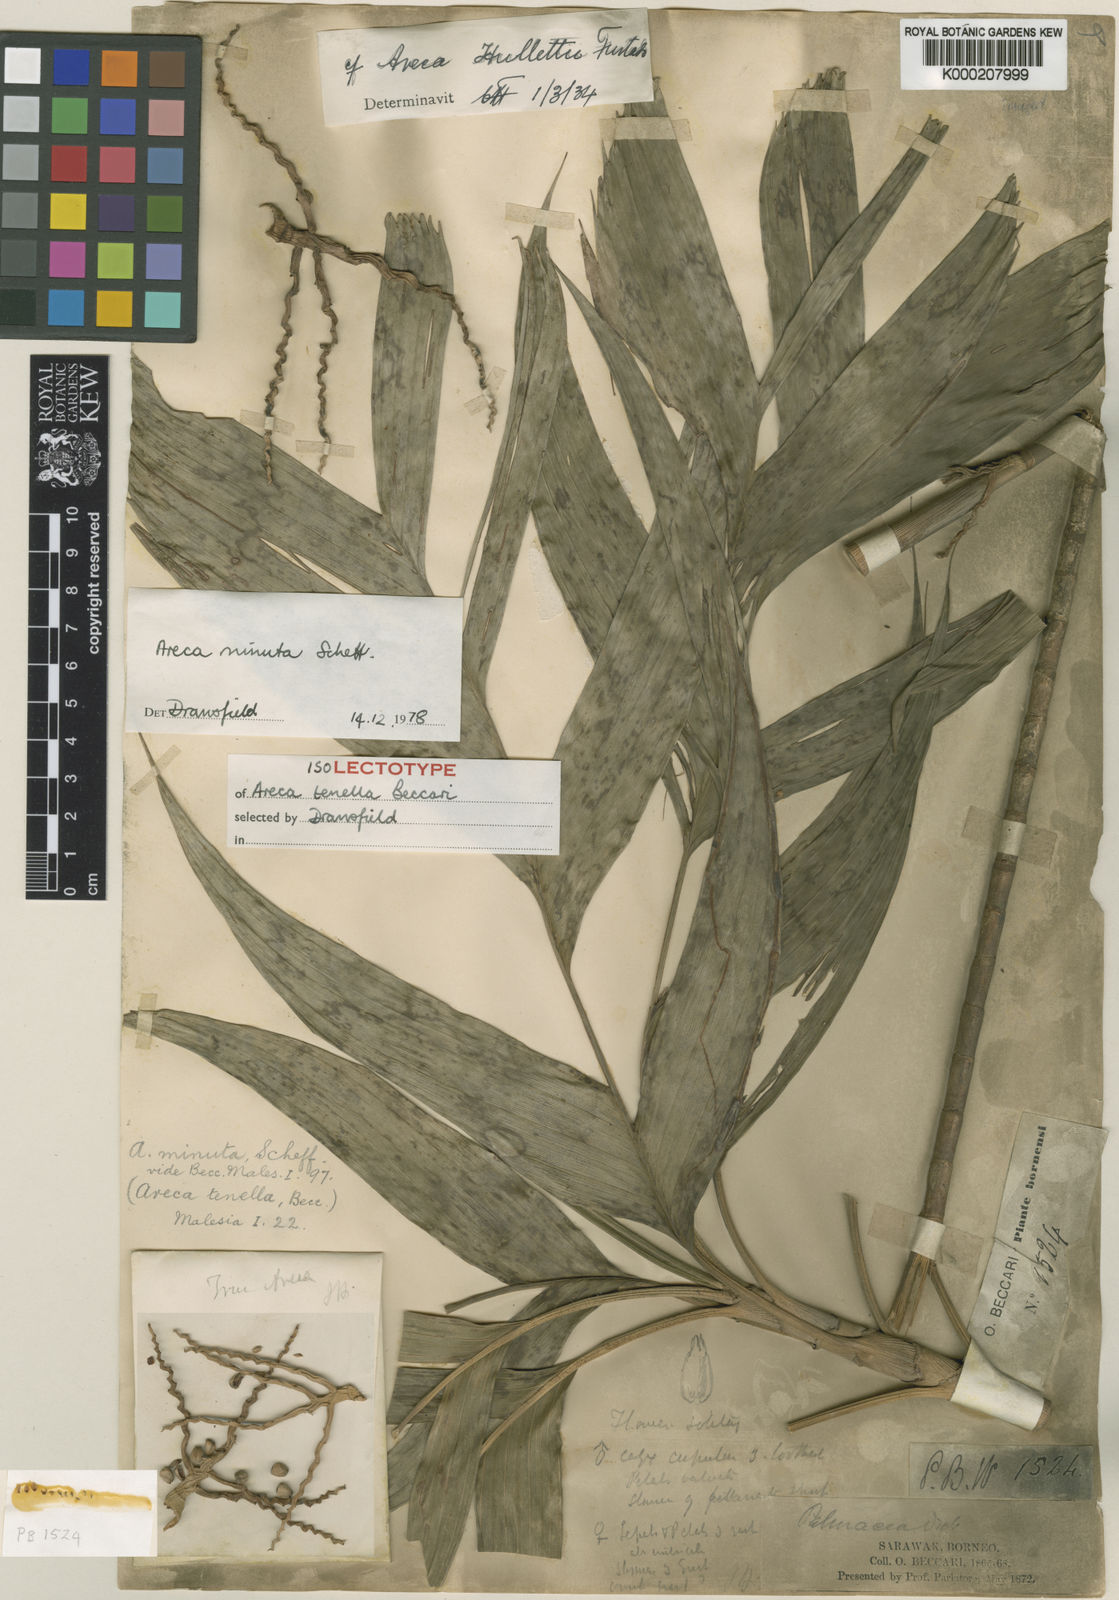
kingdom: Plantae
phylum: Tracheophyta
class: Liliopsida
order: Arecales
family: Arecaceae
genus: Areca
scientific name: Areca minuta
